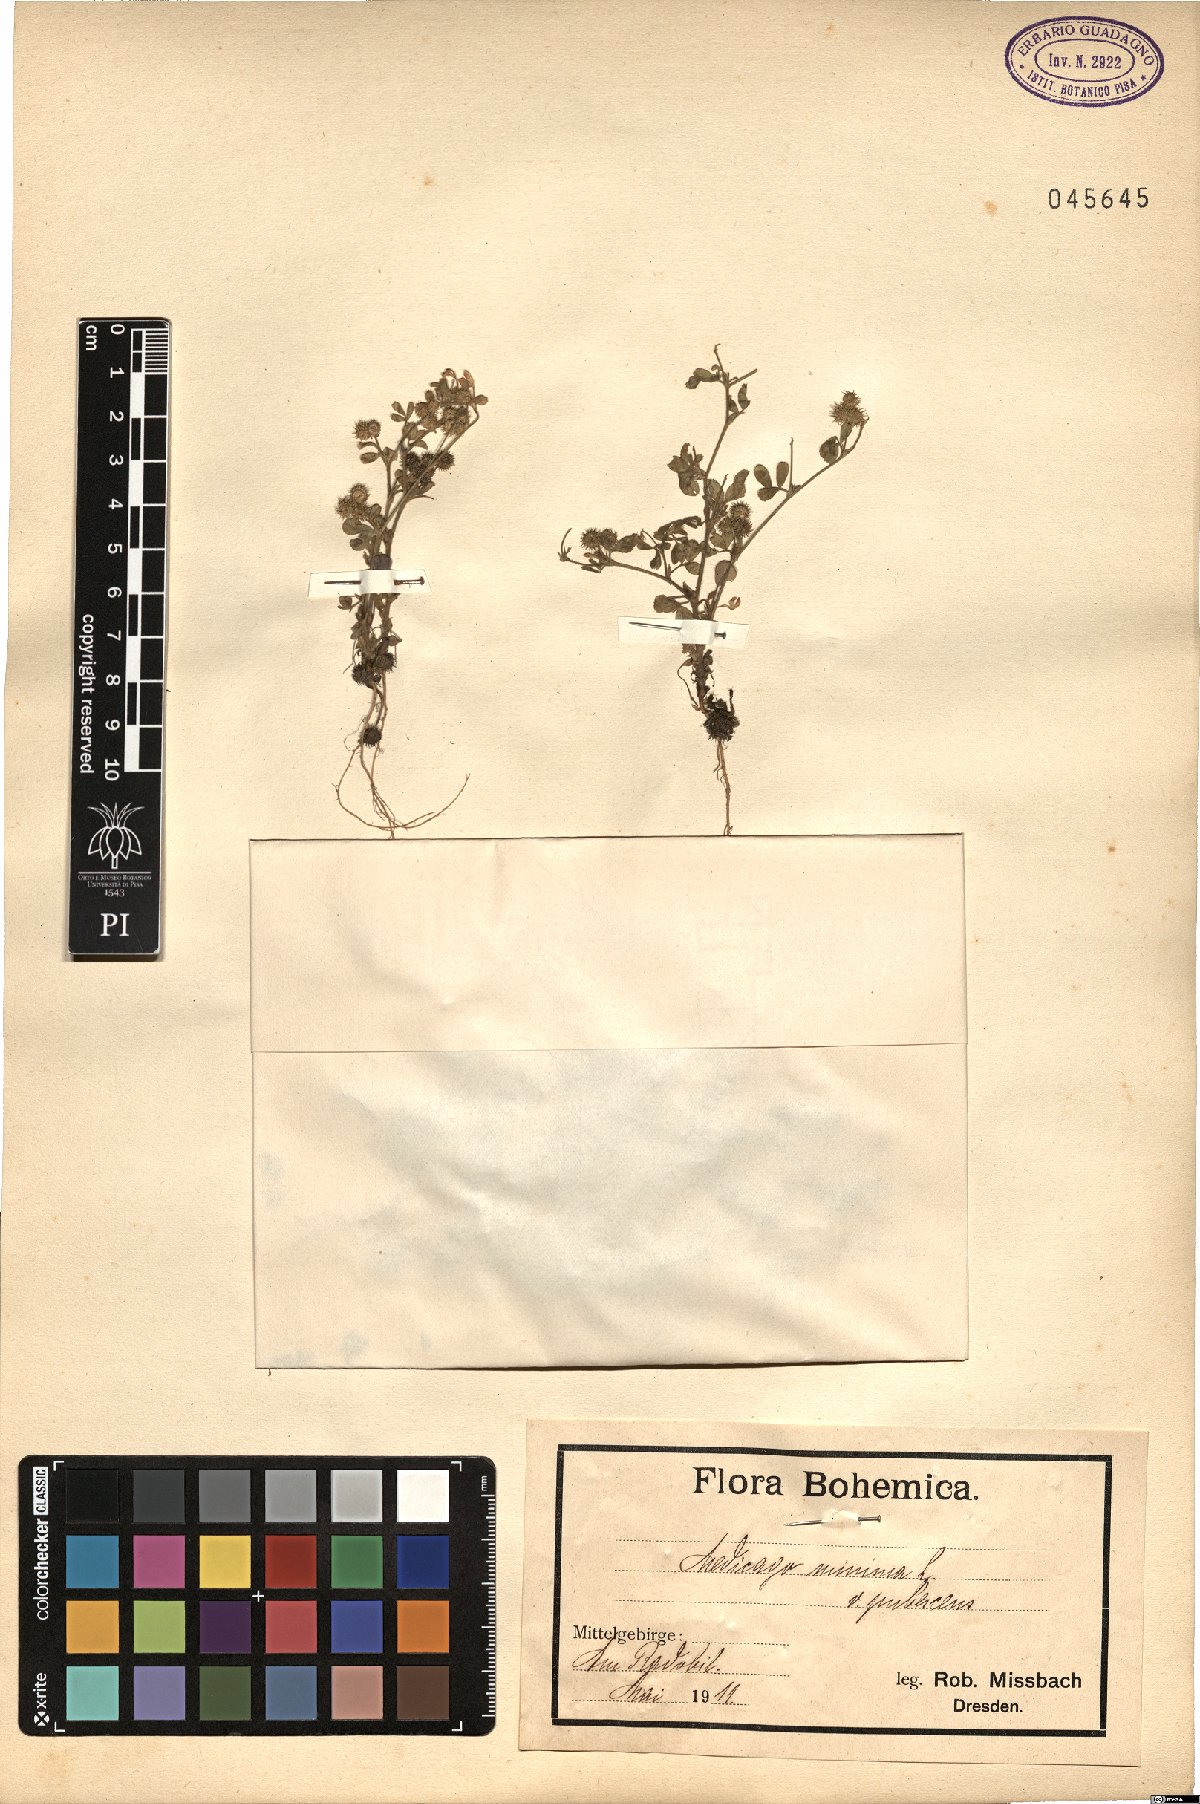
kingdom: Plantae
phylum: Tracheophyta
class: Magnoliopsida
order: Fabales
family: Fabaceae
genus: Medicago
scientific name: Medicago minima
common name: Little bur-clover
